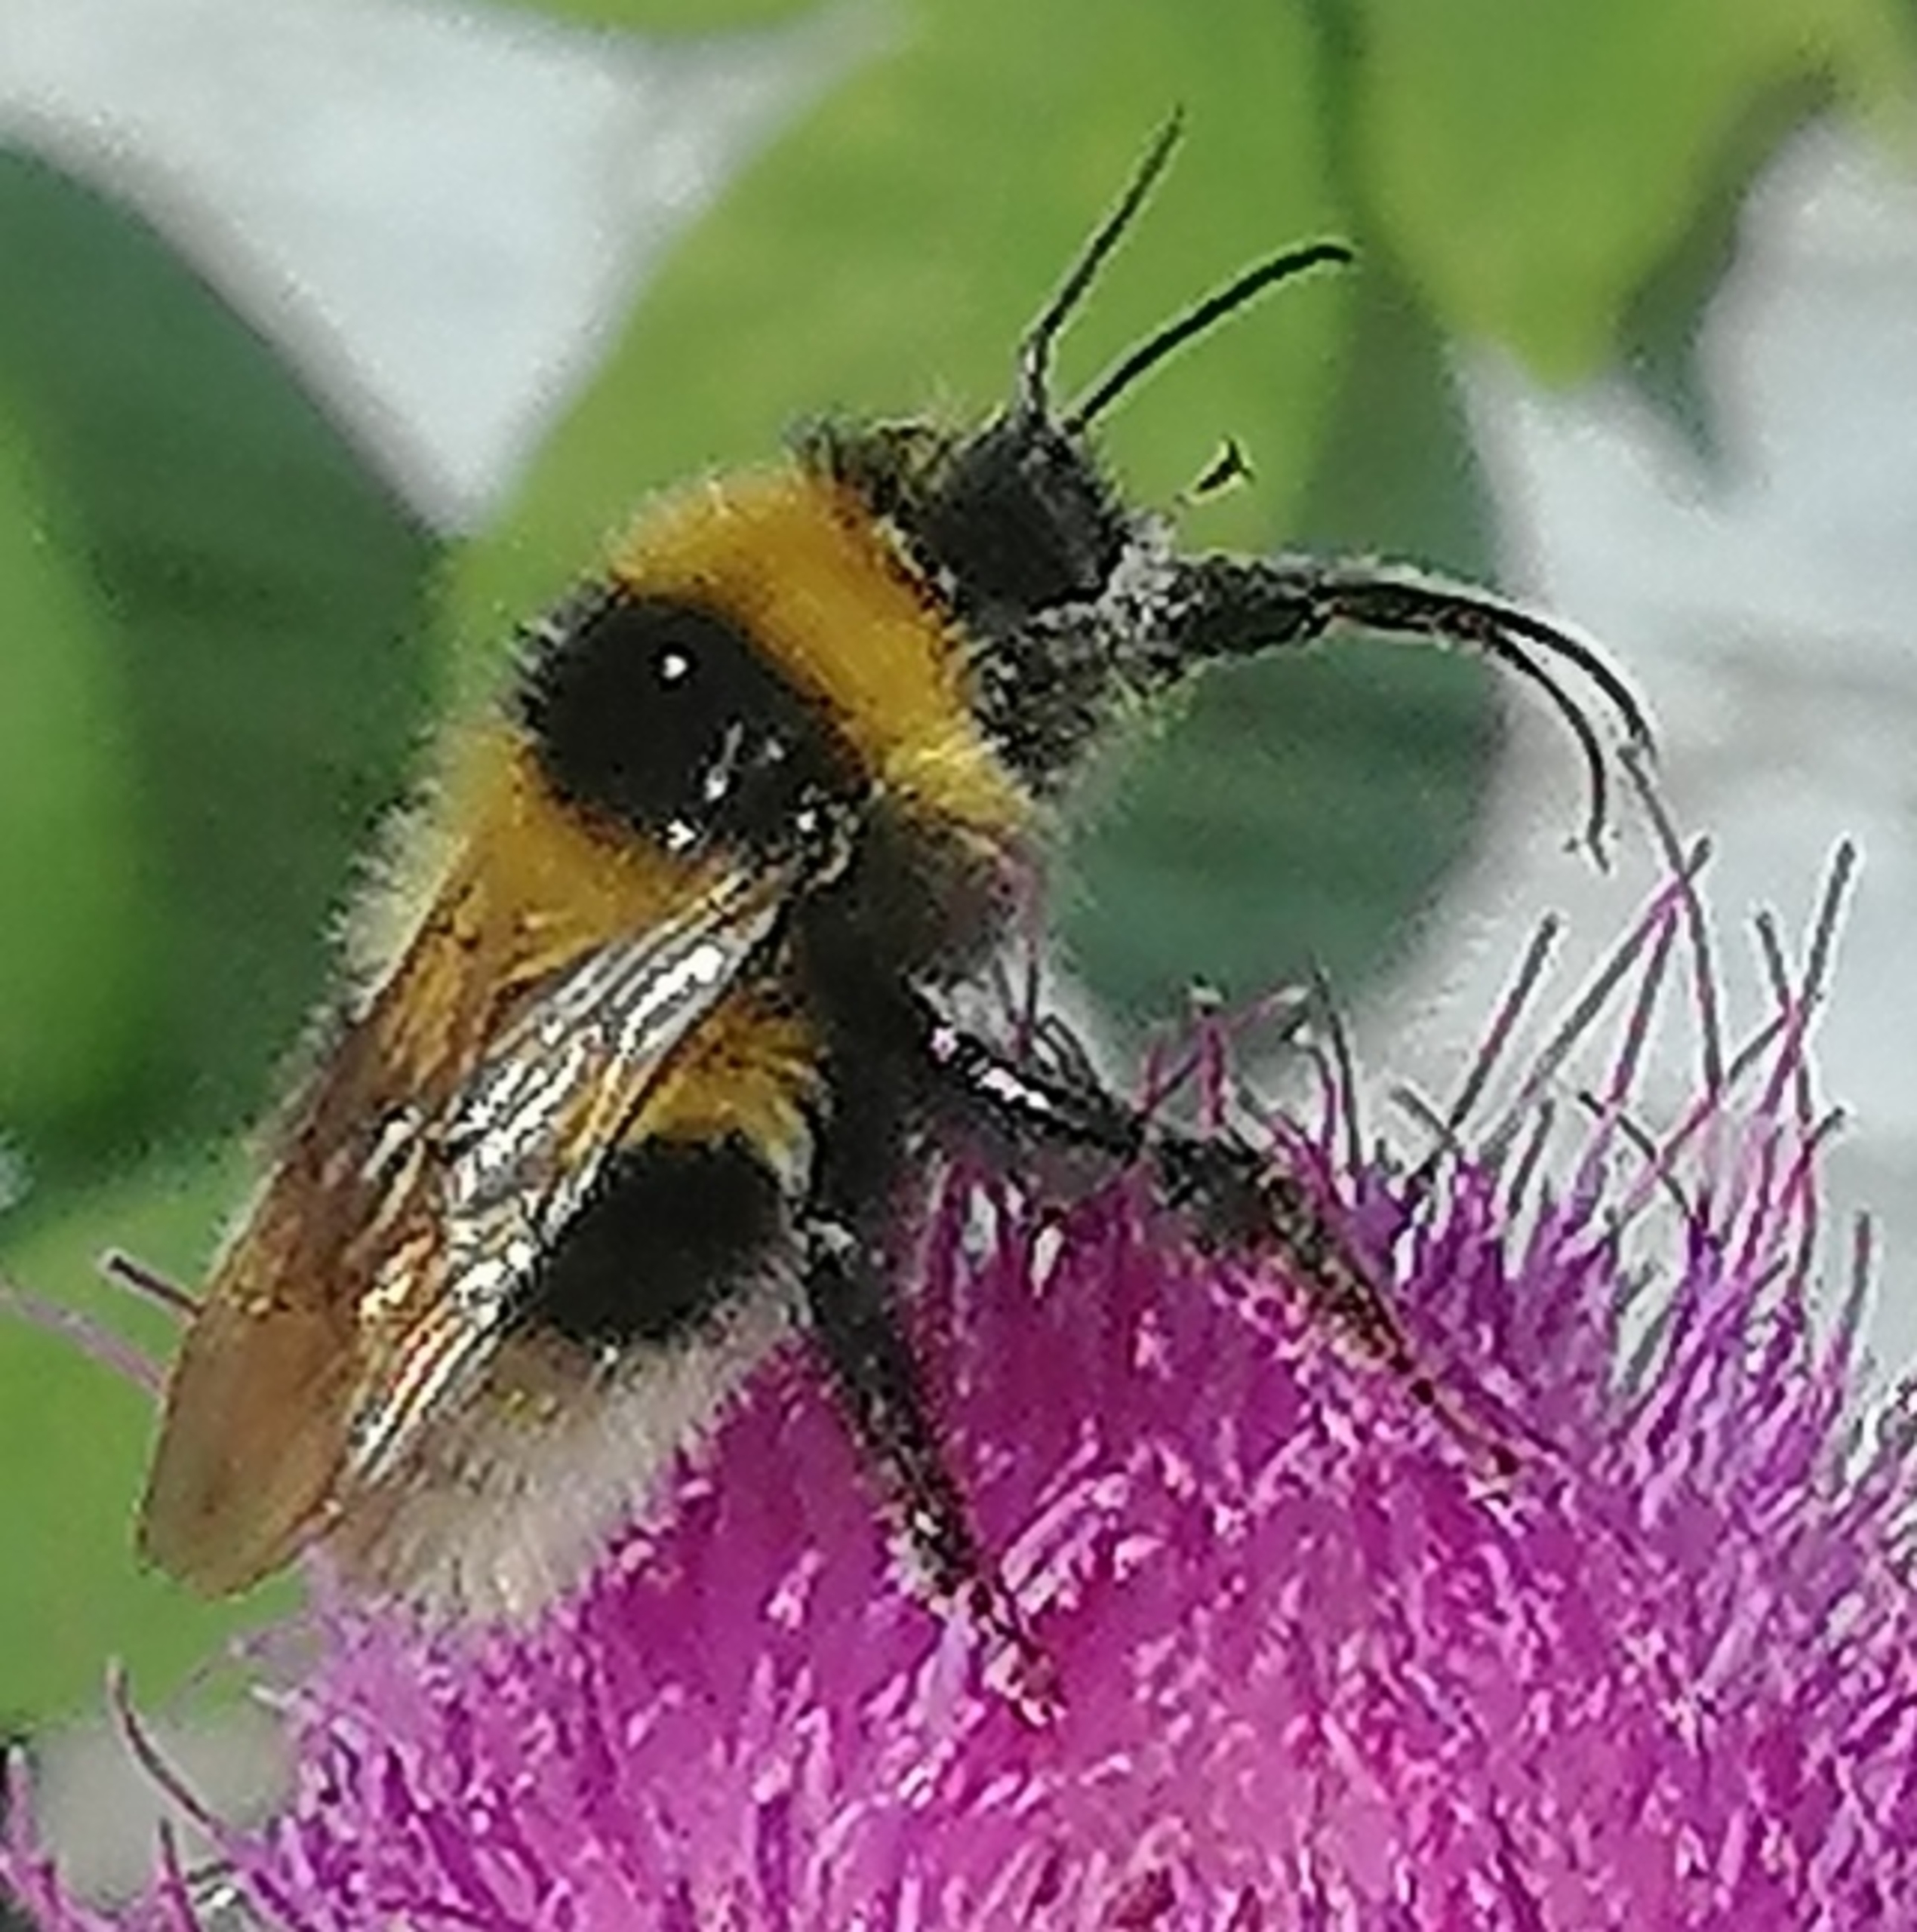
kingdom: Animalia
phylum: Arthropoda
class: Insecta
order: Hymenoptera
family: Apidae
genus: Bombus
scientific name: Bombus hortorum
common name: Havehumle
